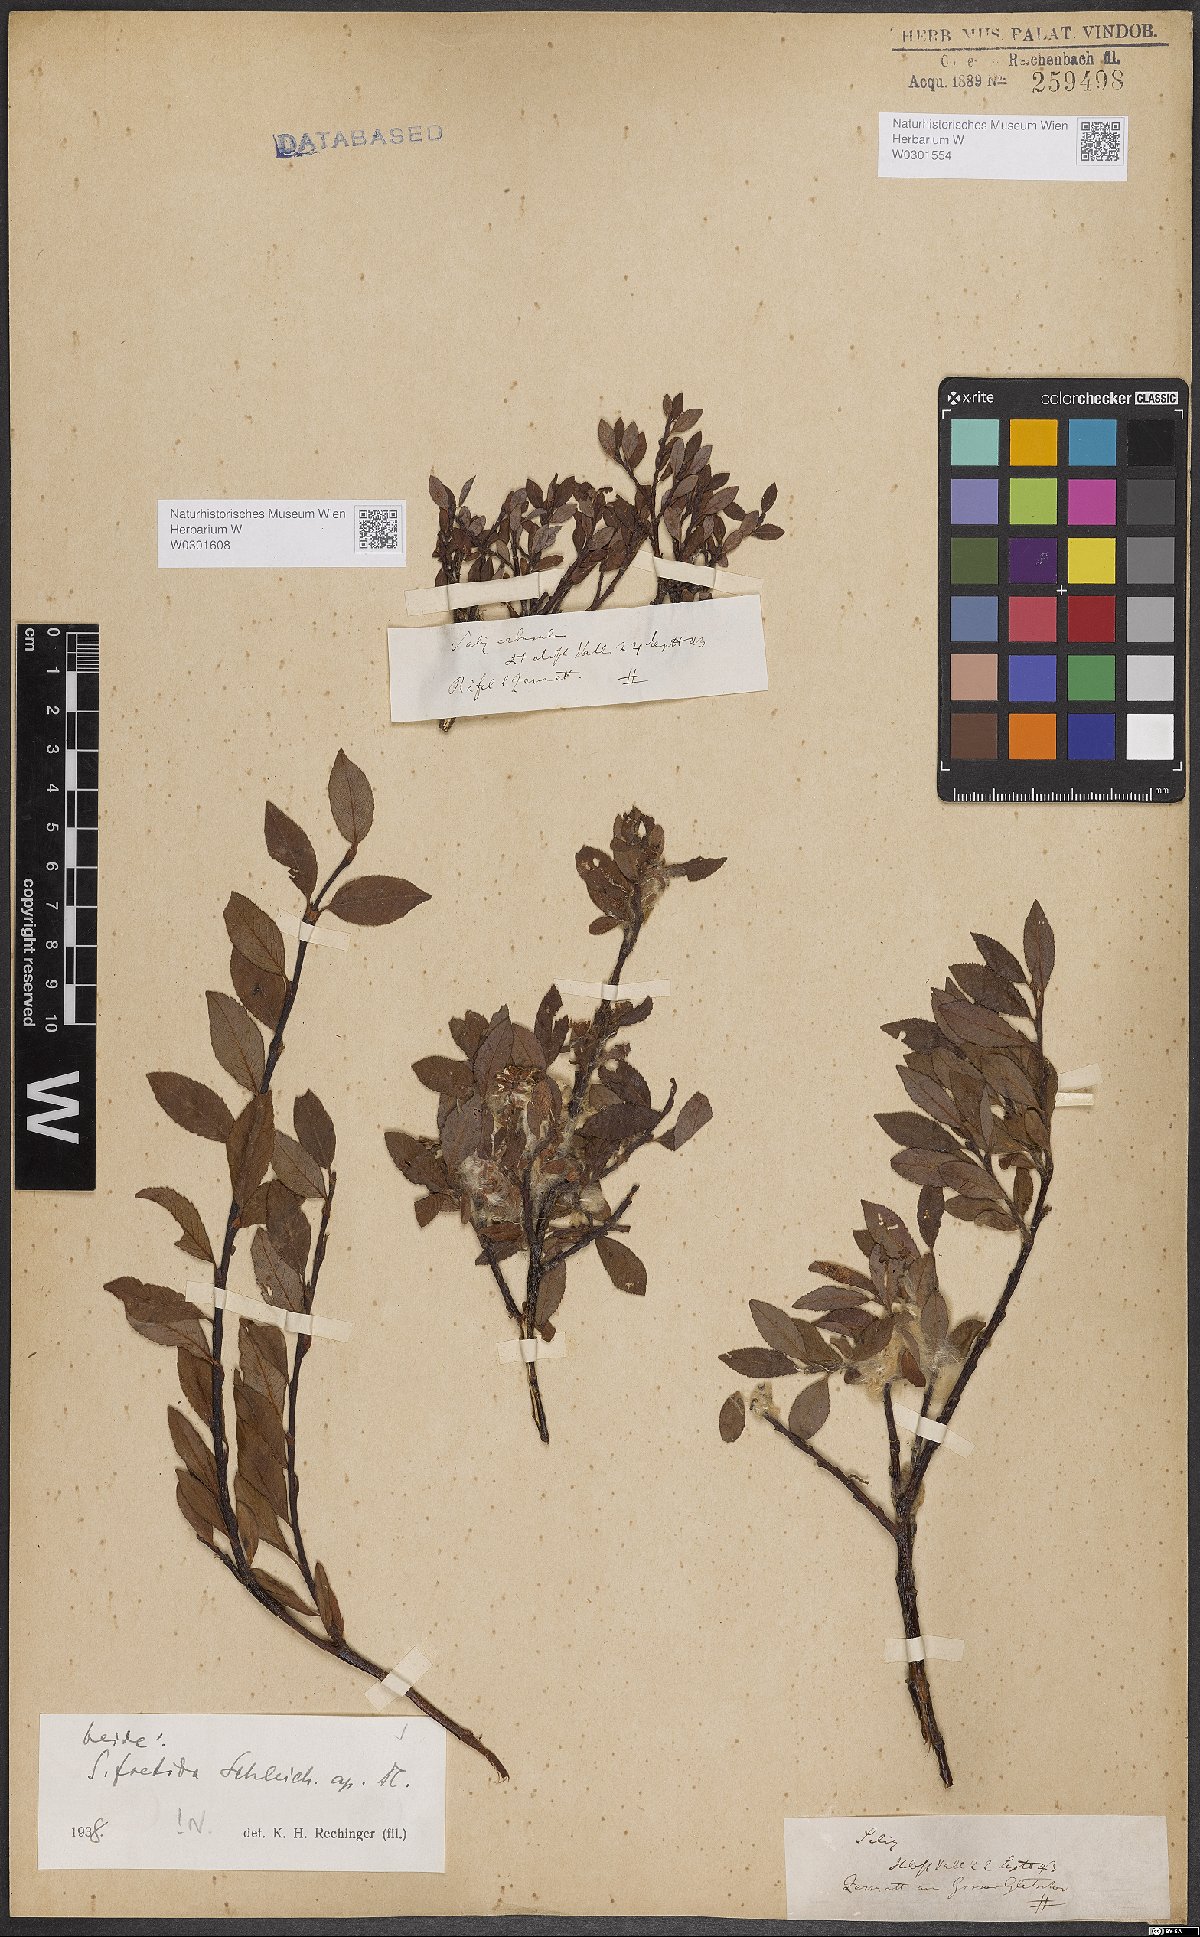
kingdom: Plantae
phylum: Tracheophyta
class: Magnoliopsida
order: Malpighiales
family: Salicaceae
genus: Salix
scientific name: Salix foetida
